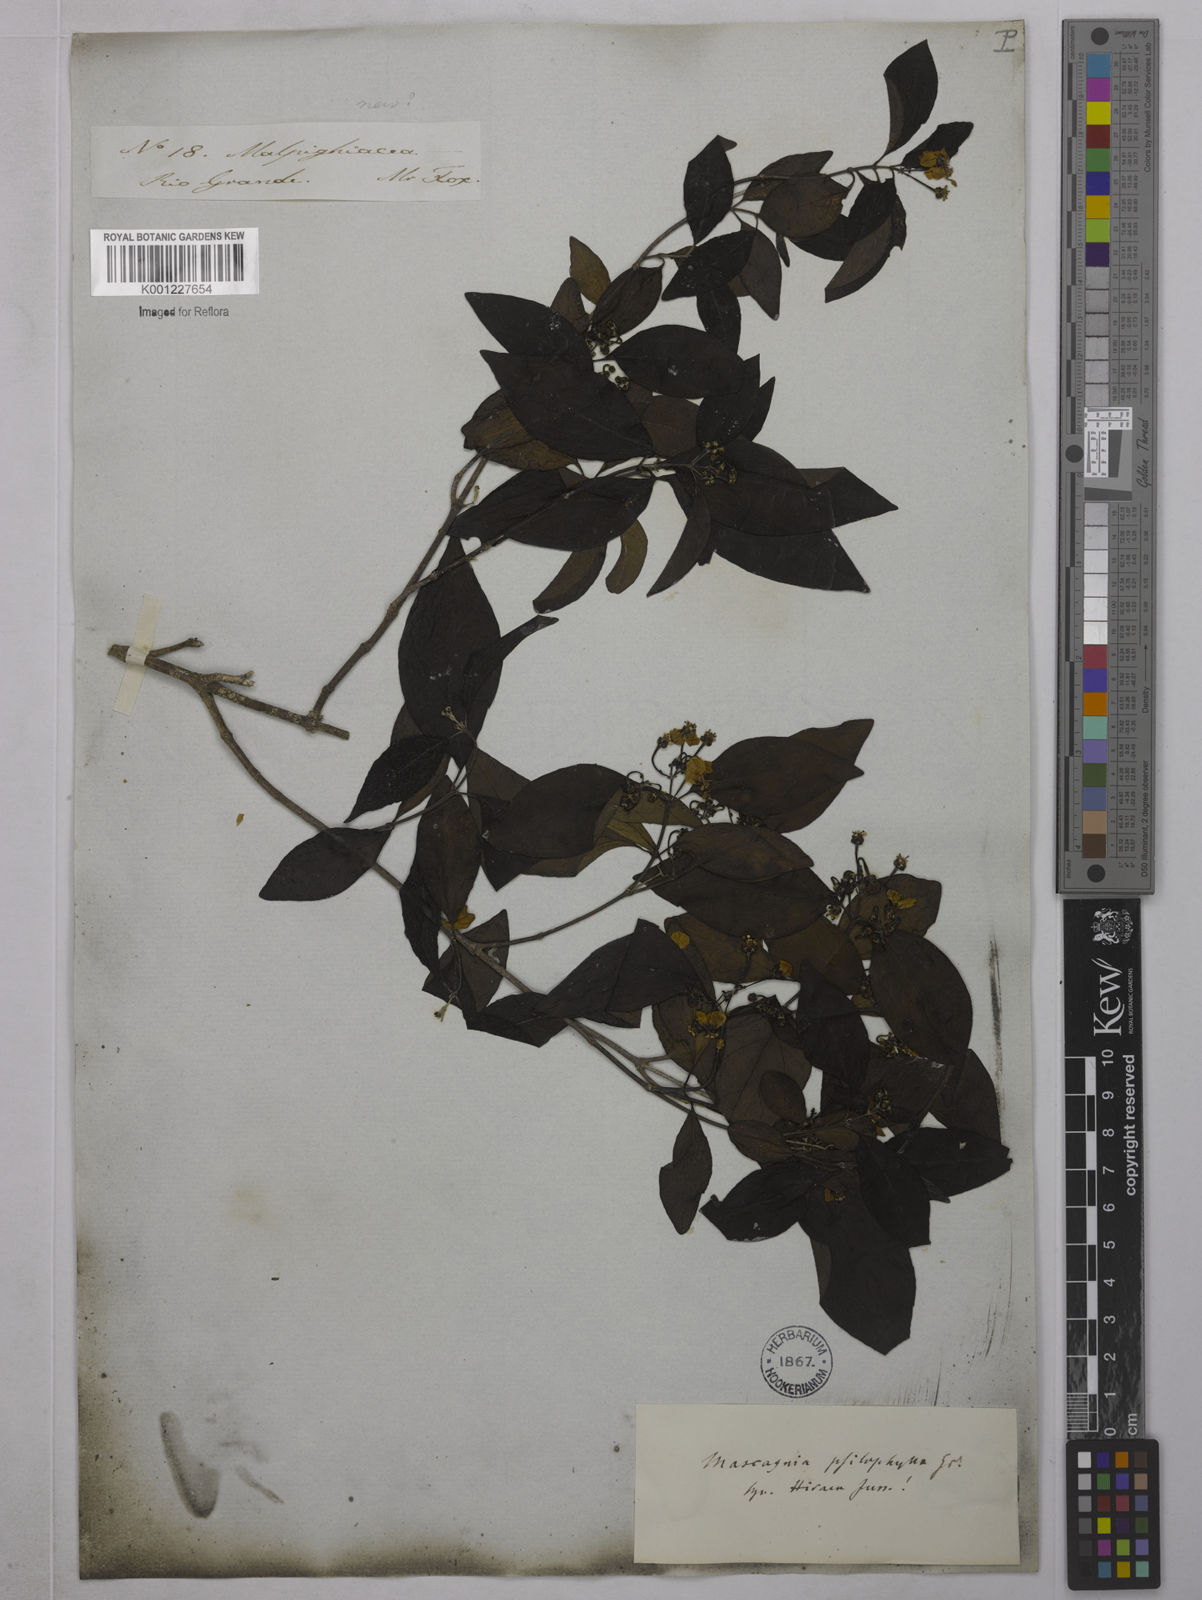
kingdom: Plantae
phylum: Tracheophyta
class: Magnoliopsida
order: Malpighiales
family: Malpighiaceae
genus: Callaeum
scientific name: Callaeum psilophyllum
